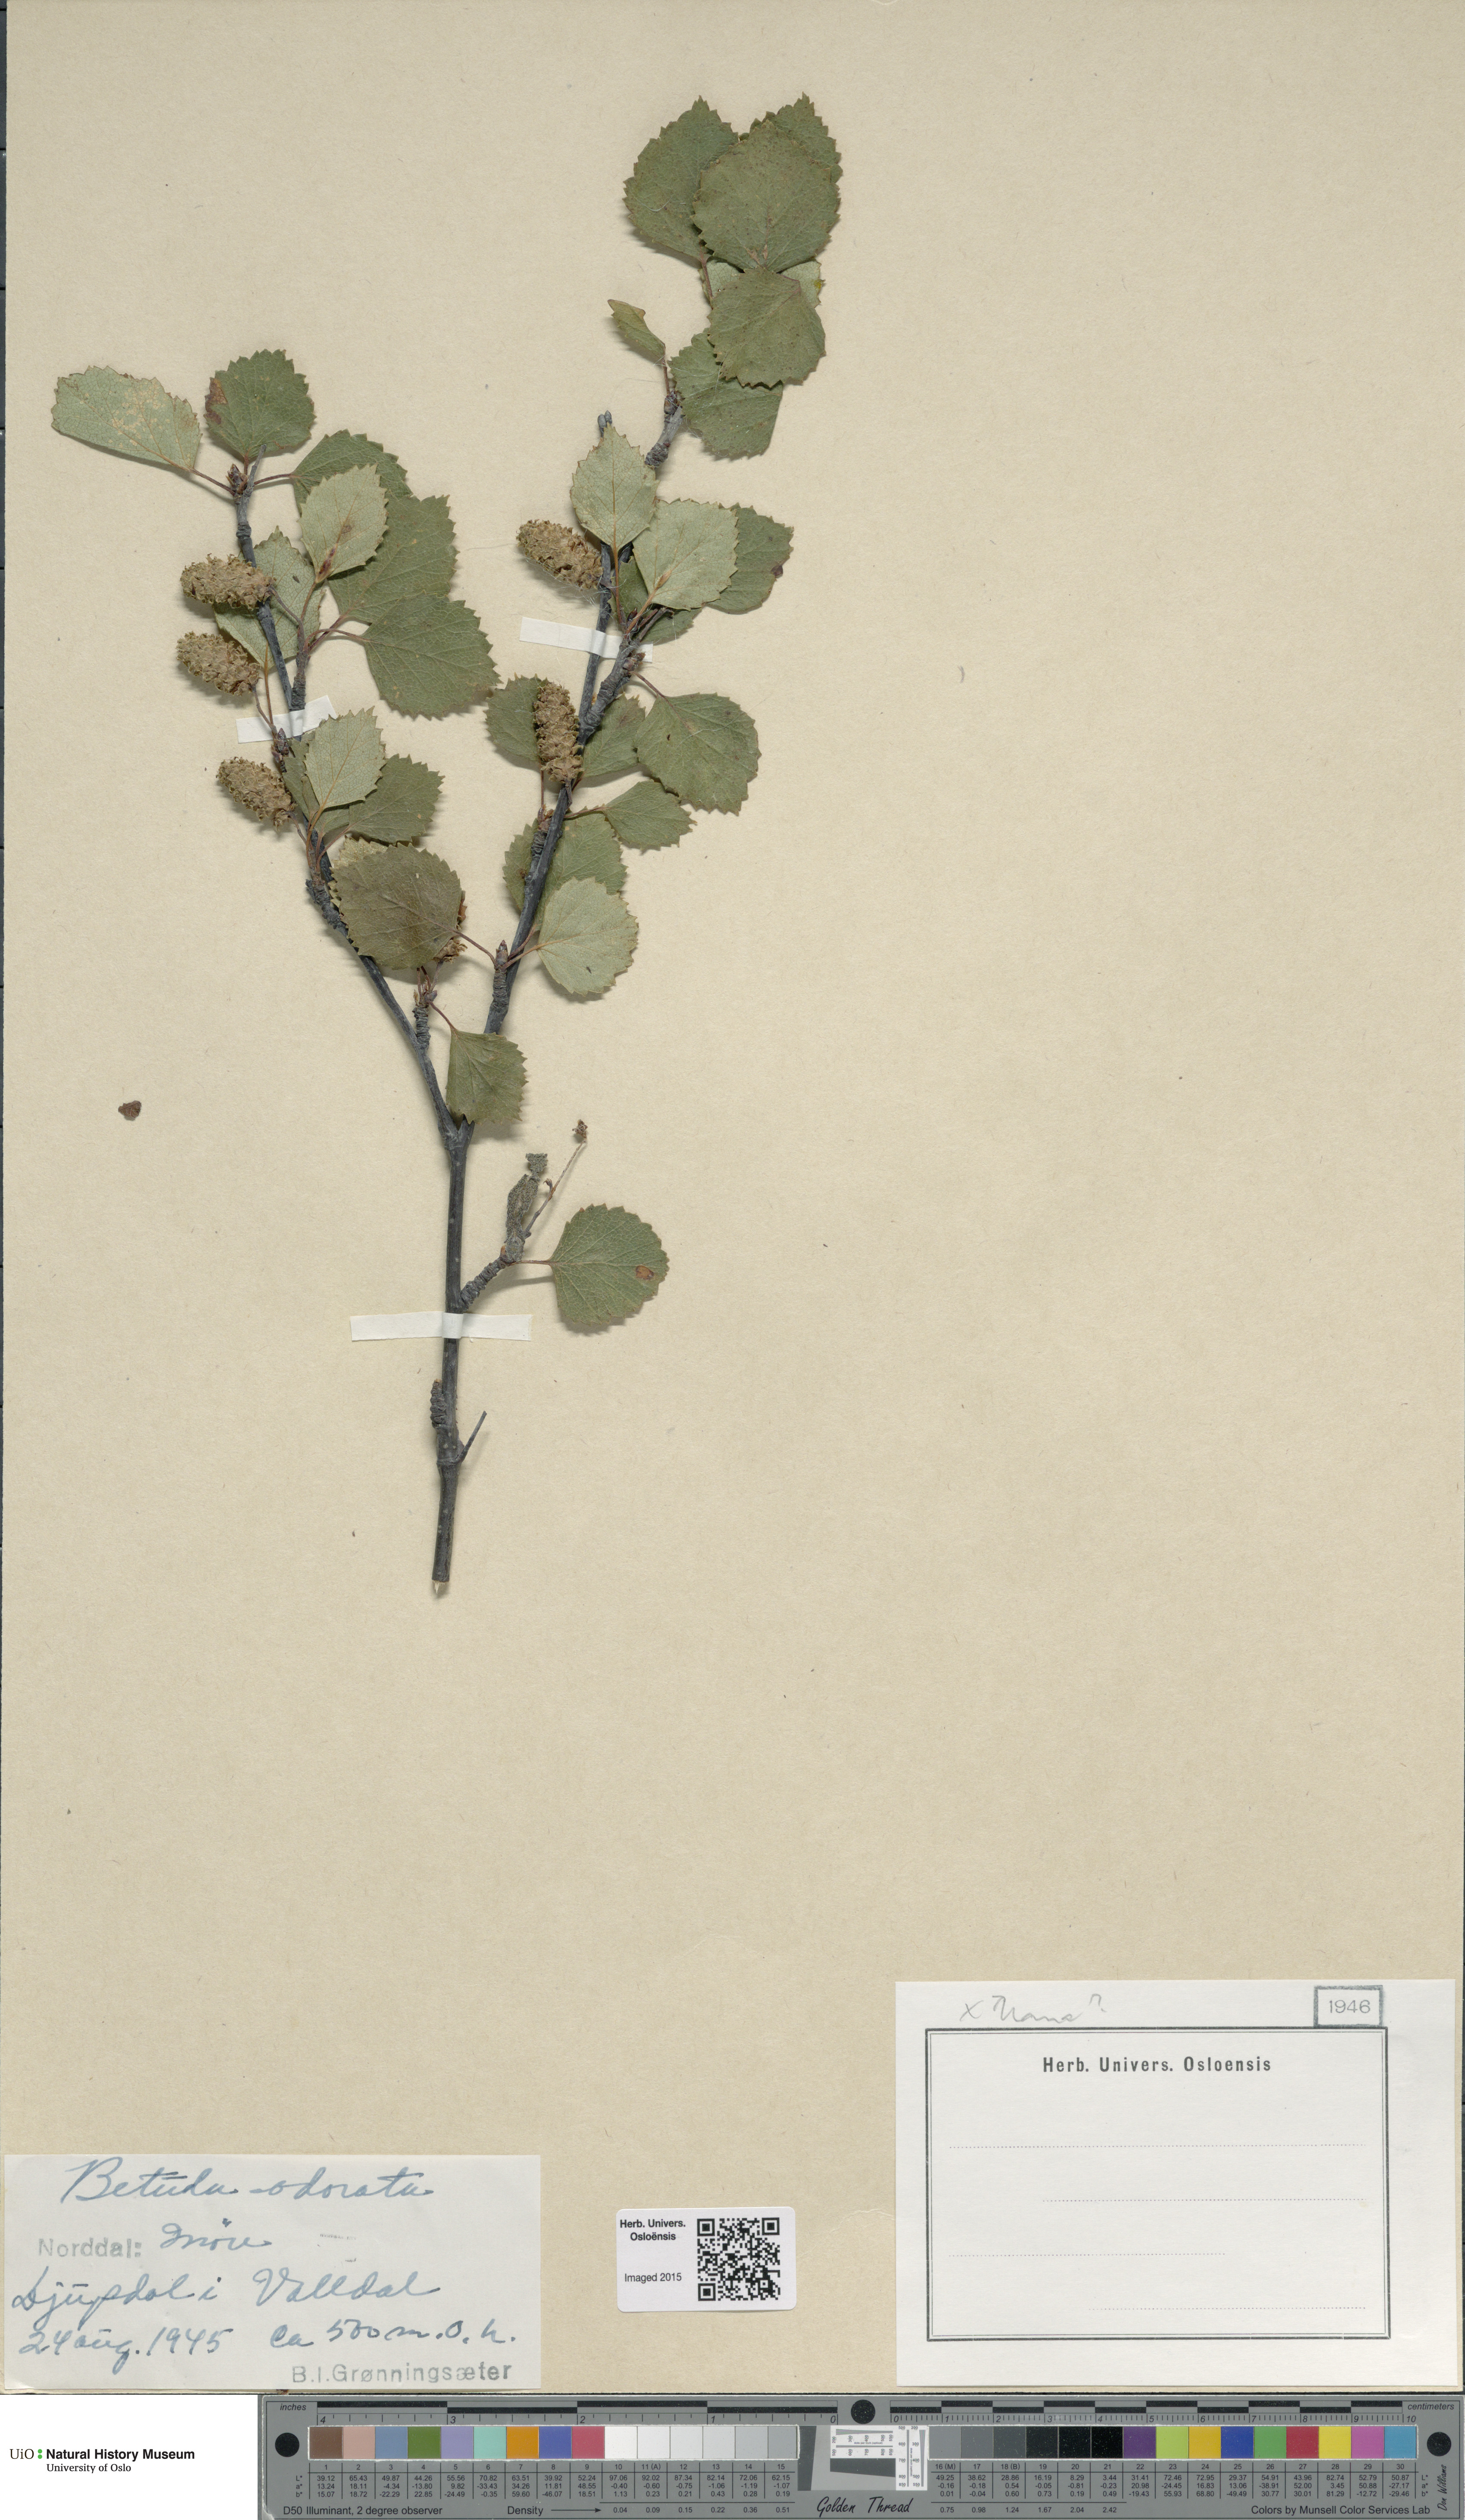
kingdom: Plantae
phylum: Tracheophyta
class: Magnoliopsida
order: Fagales
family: Betulaceae
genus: Betula
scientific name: Betula pubescens
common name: Downy birch
